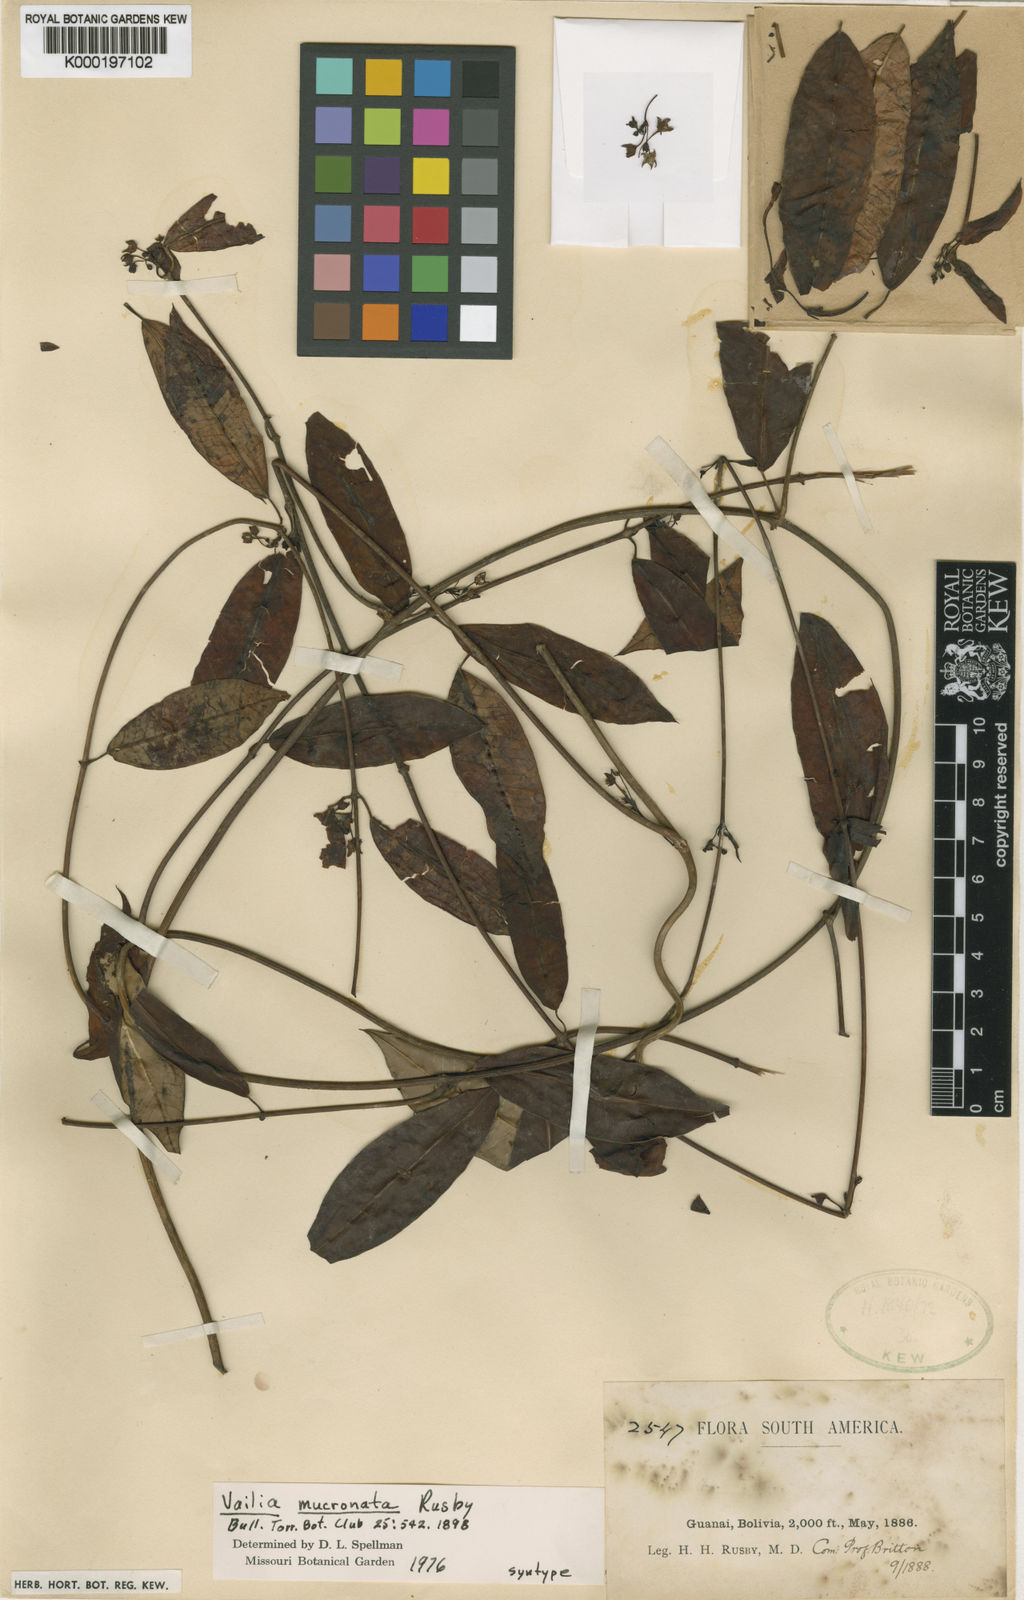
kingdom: Plantae
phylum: Tracheophyta
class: Magnoliopsida
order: Gentianales
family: Apocynaceae
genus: Vailia
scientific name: Vailia salicina
